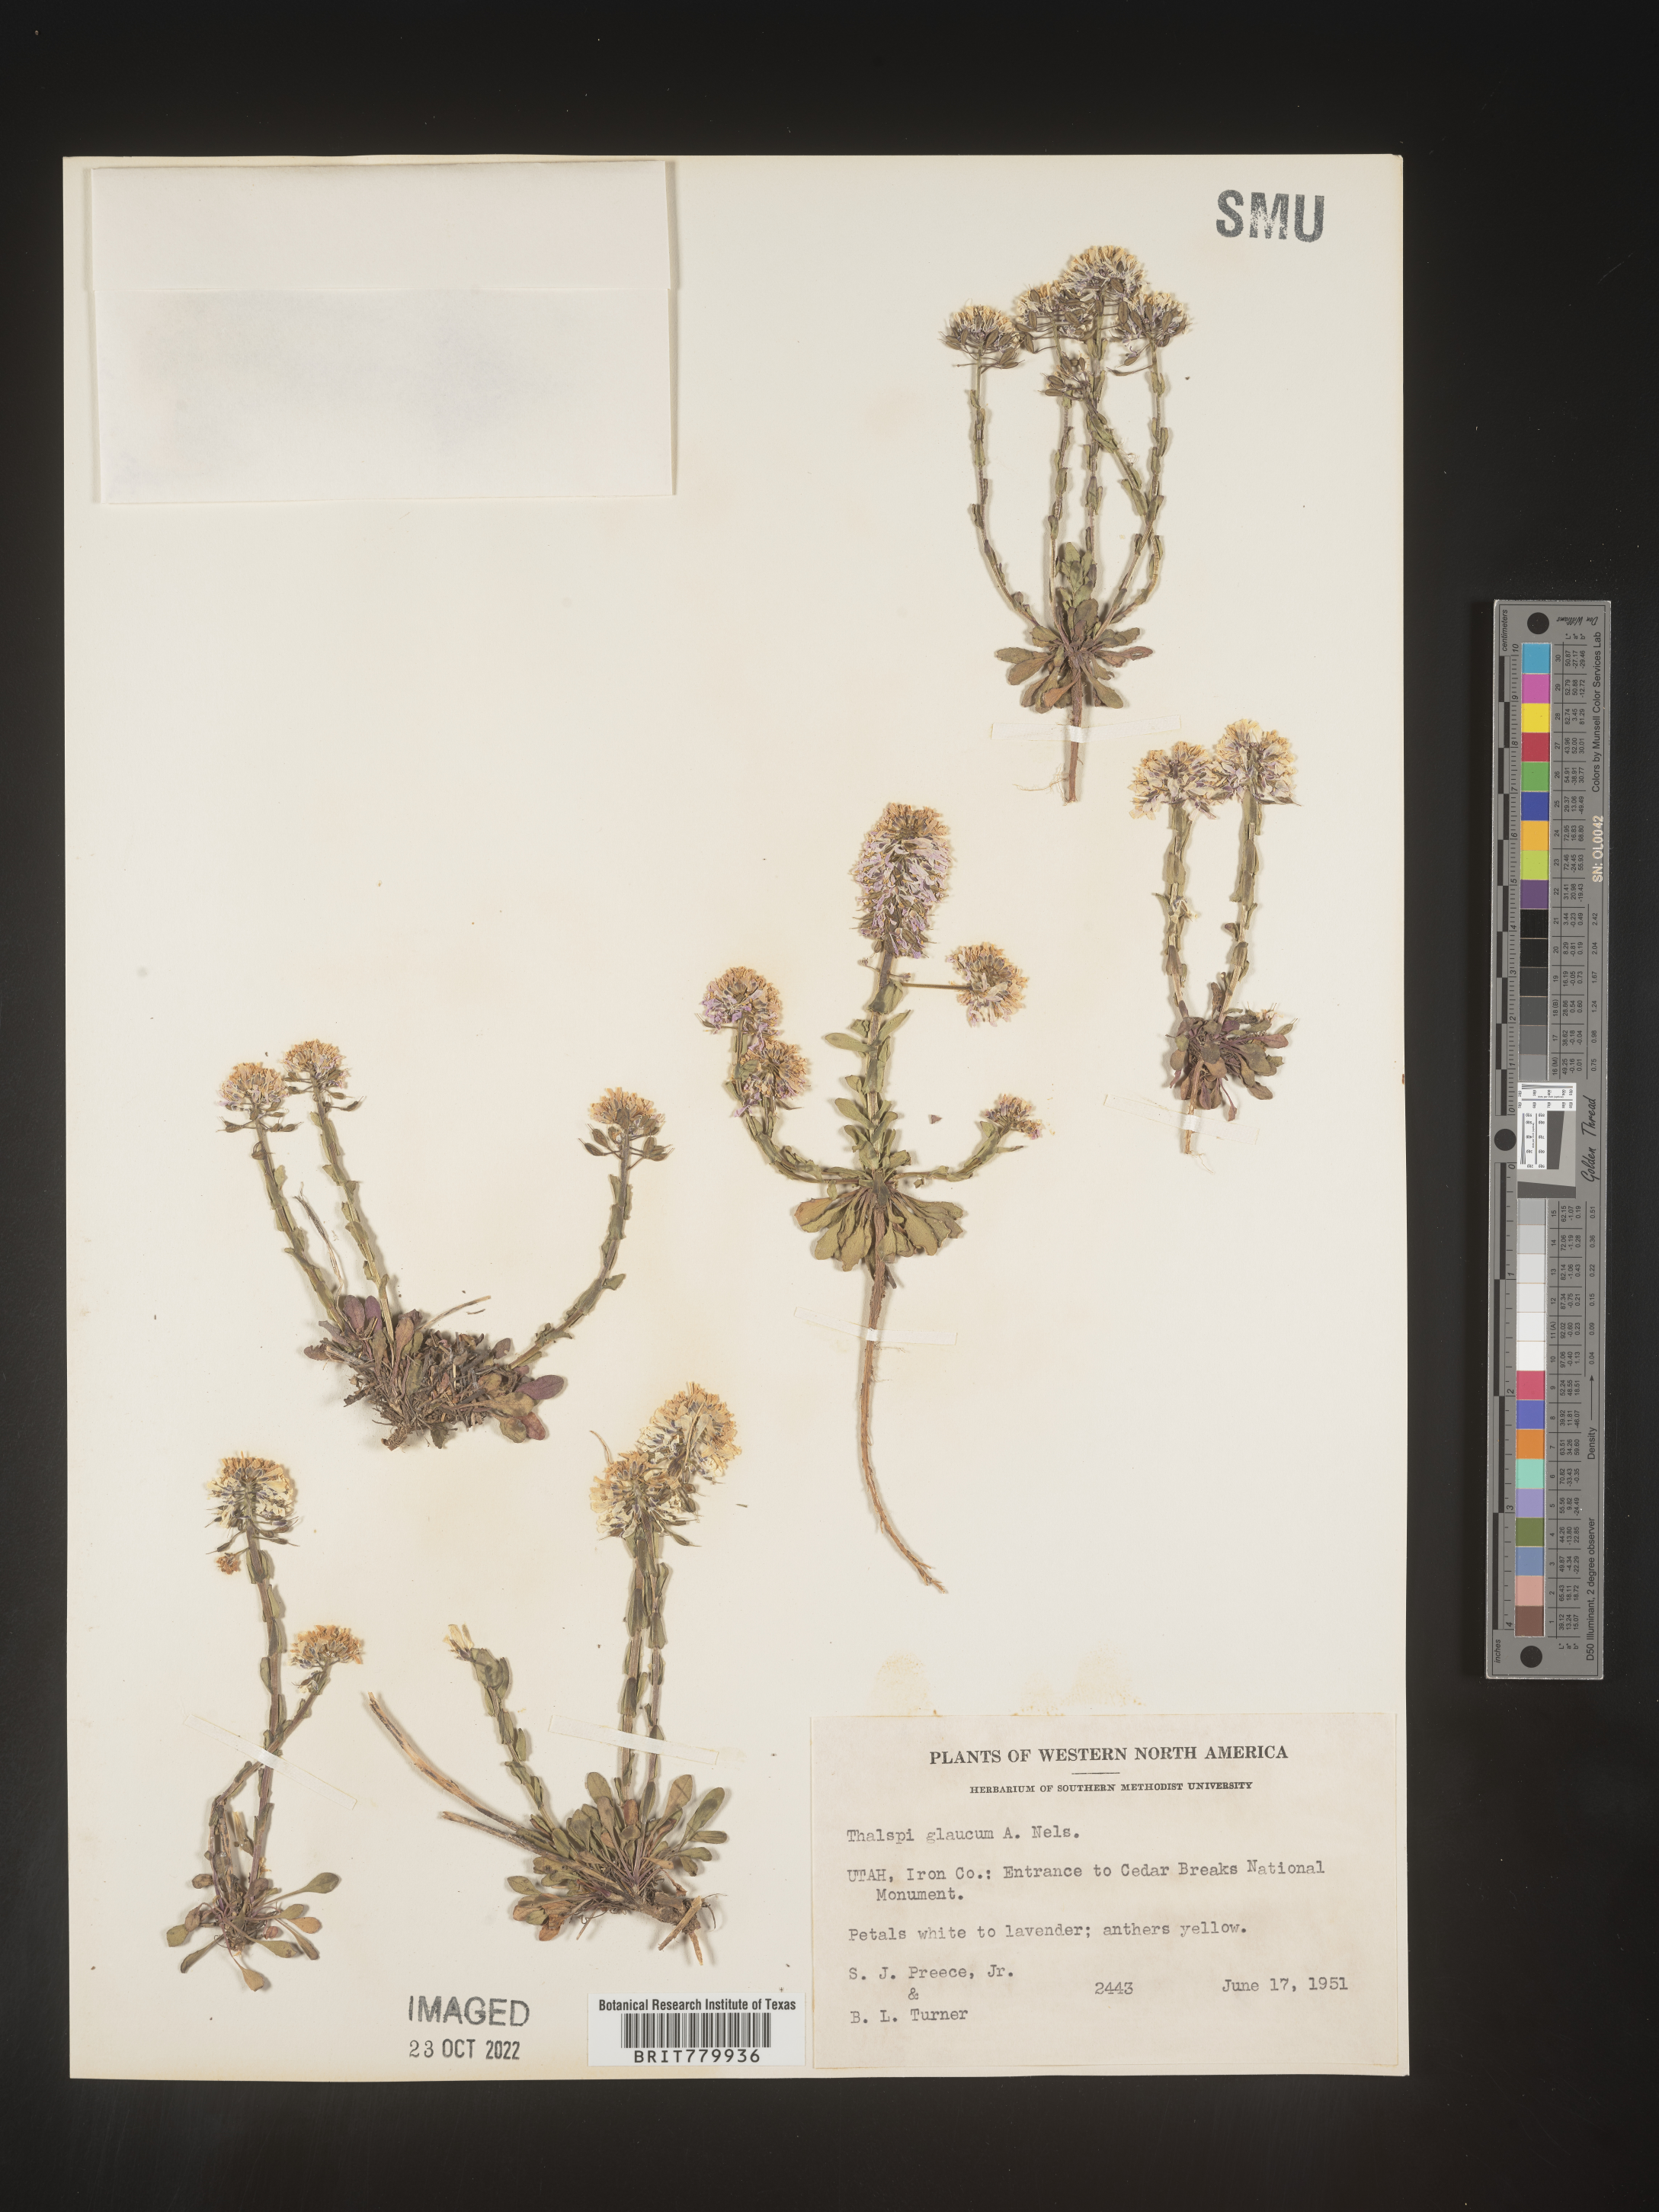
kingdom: Plantae
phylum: Tracheophyta
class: Magnoliopsida
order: Brassicales
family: Brassicaceae
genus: Thlaspi
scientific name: Thlaspi
